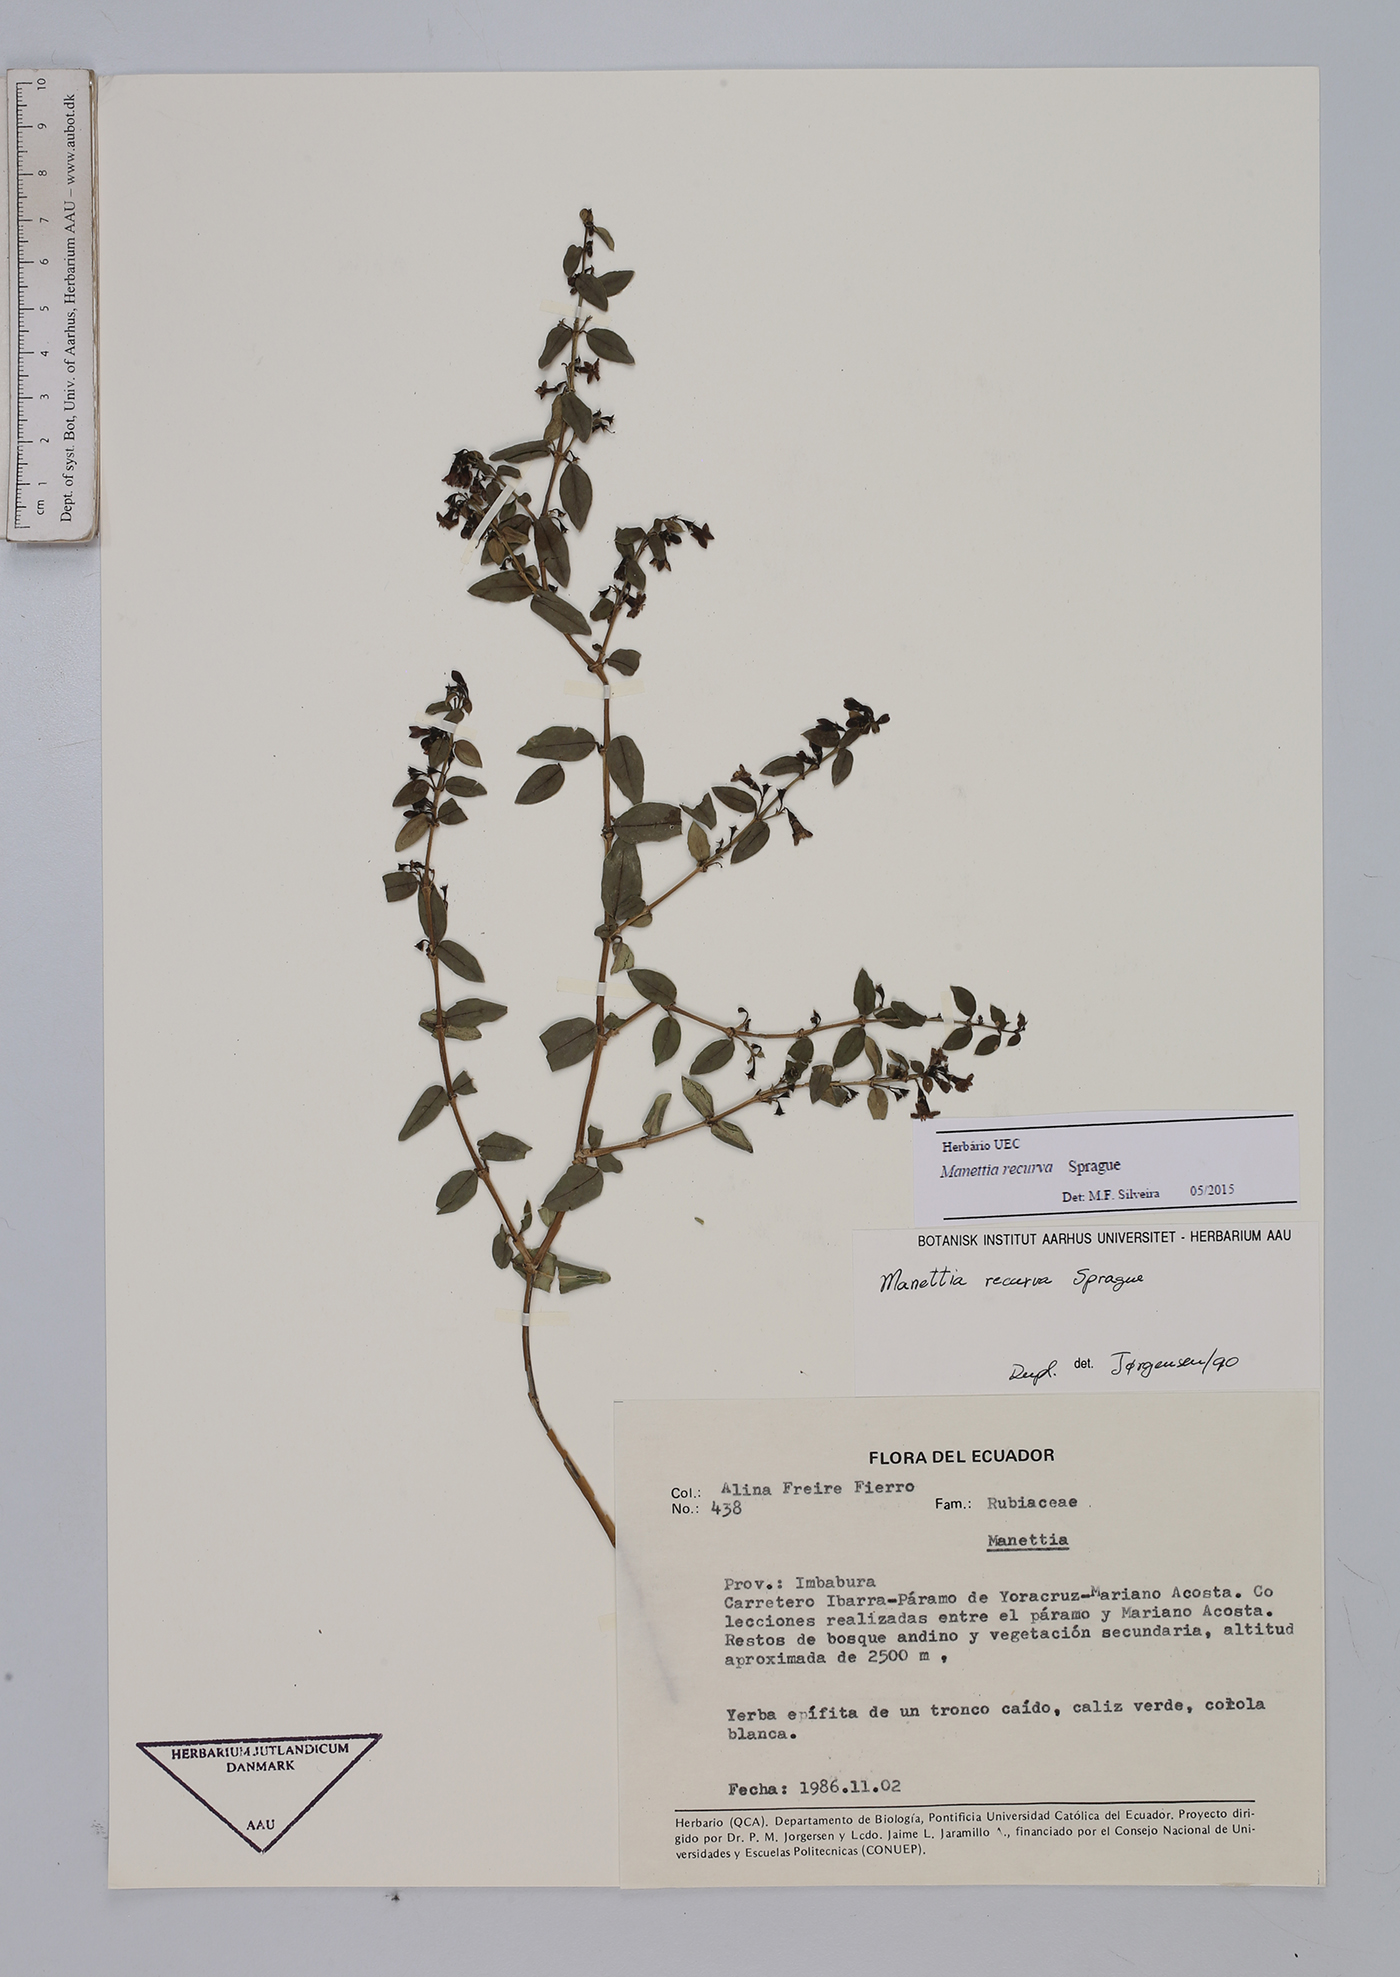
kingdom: Plantae
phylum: Tracheophyta
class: Magnoliopsida
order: Gentianales
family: Rubiaceae
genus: Manettia
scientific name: Manettia recurva
